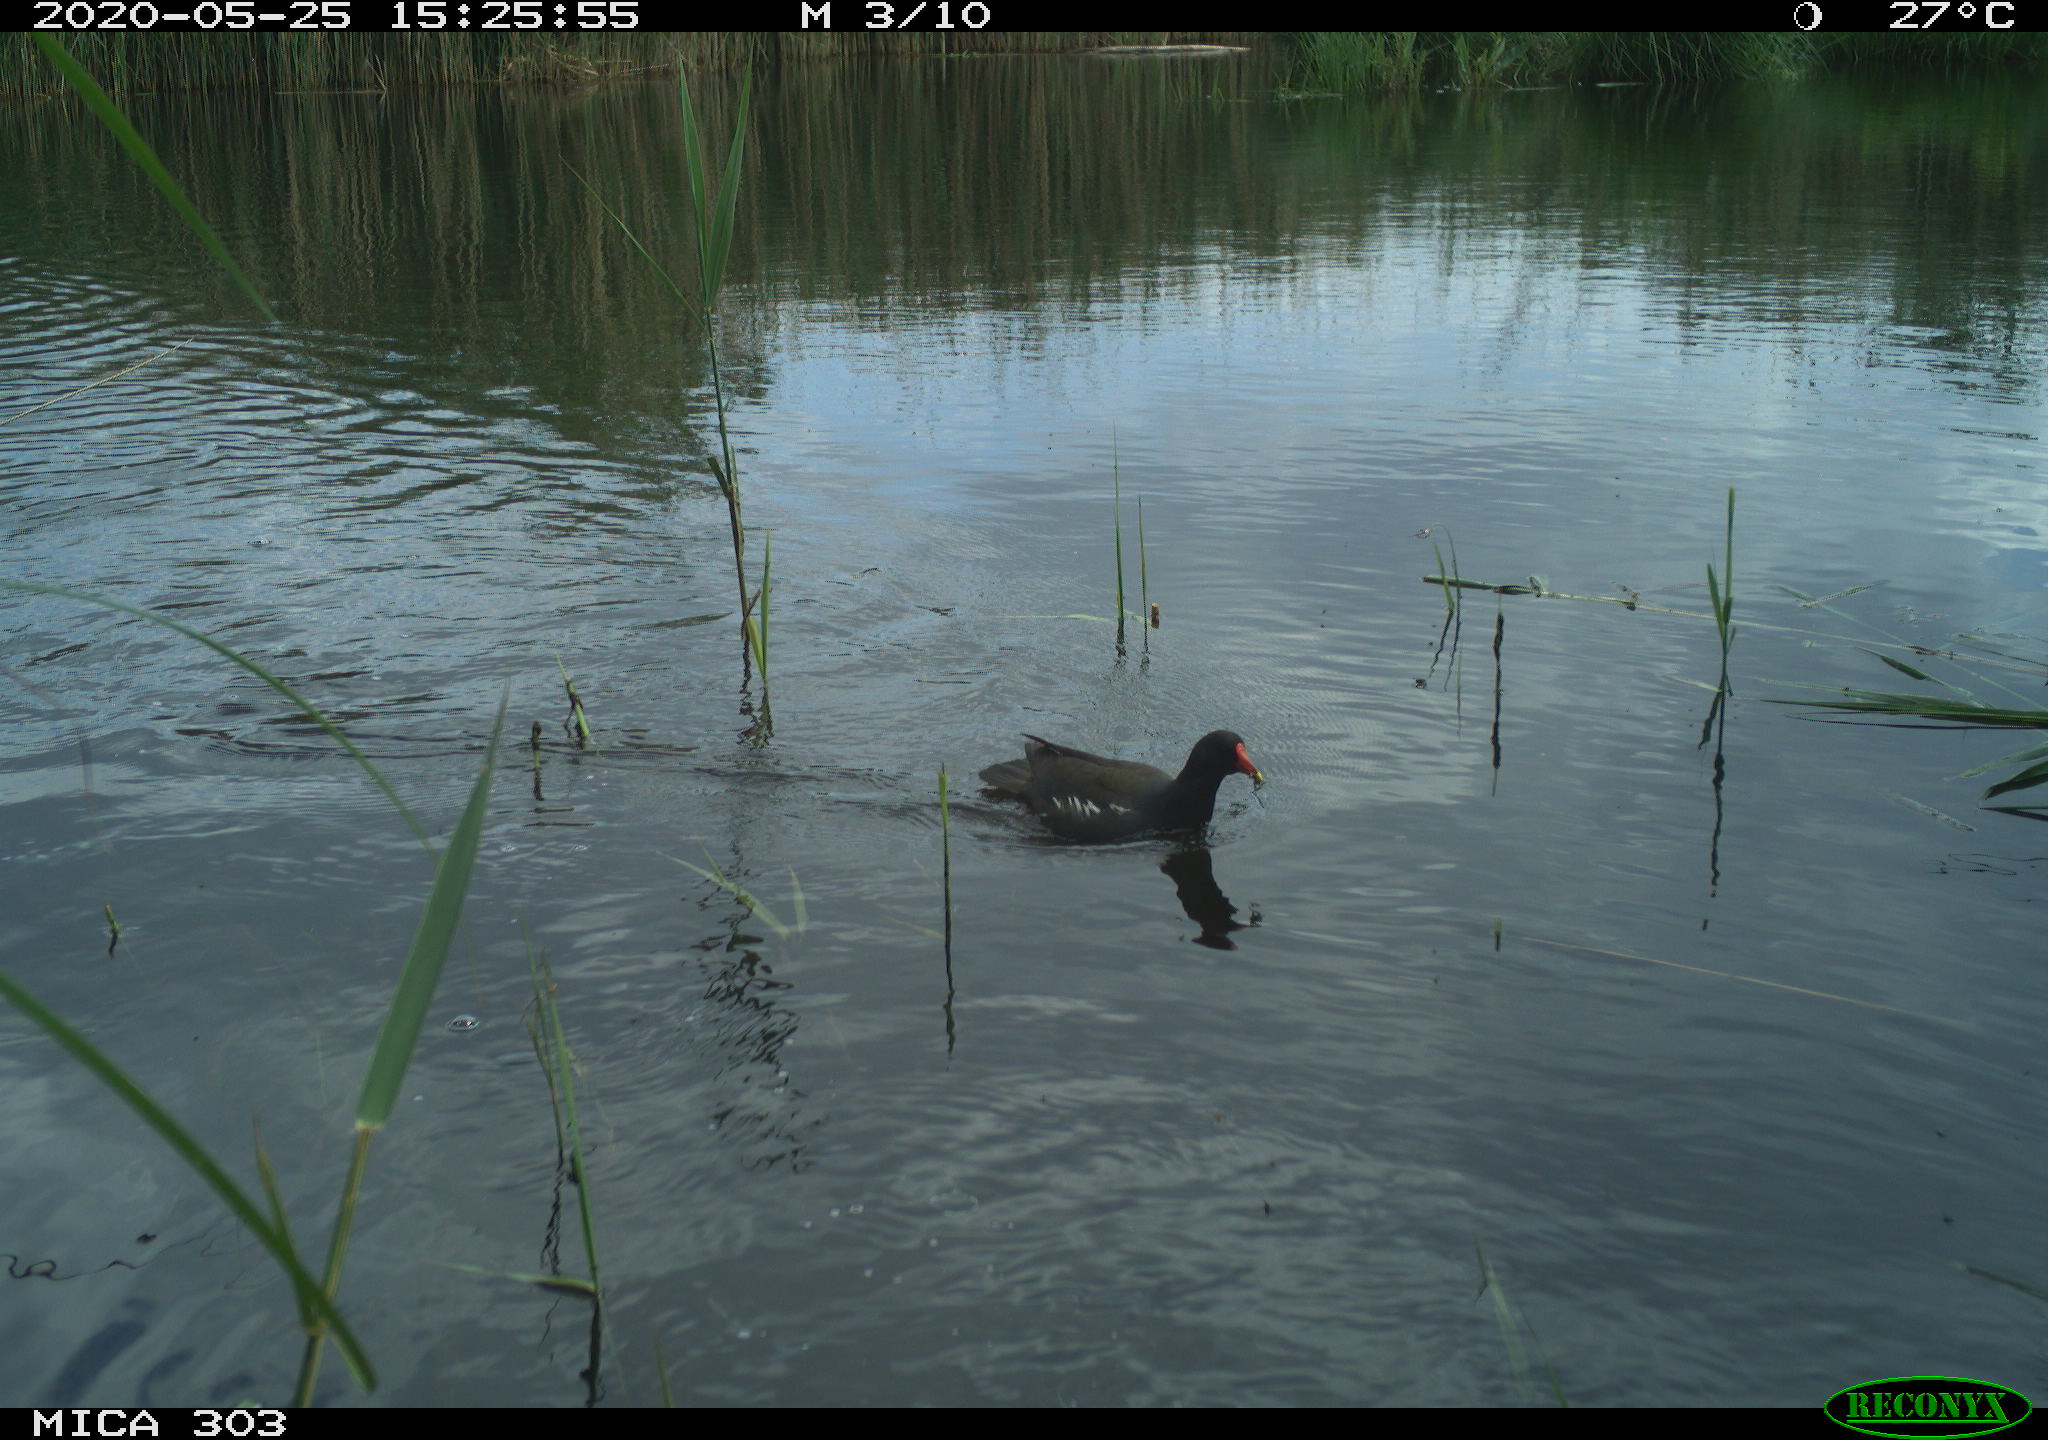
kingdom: Animalia
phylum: Chordata
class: Aves
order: Gruiformes
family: Rallidae
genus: Gallinula
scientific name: Gallinula chloropus
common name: Common moorhen
